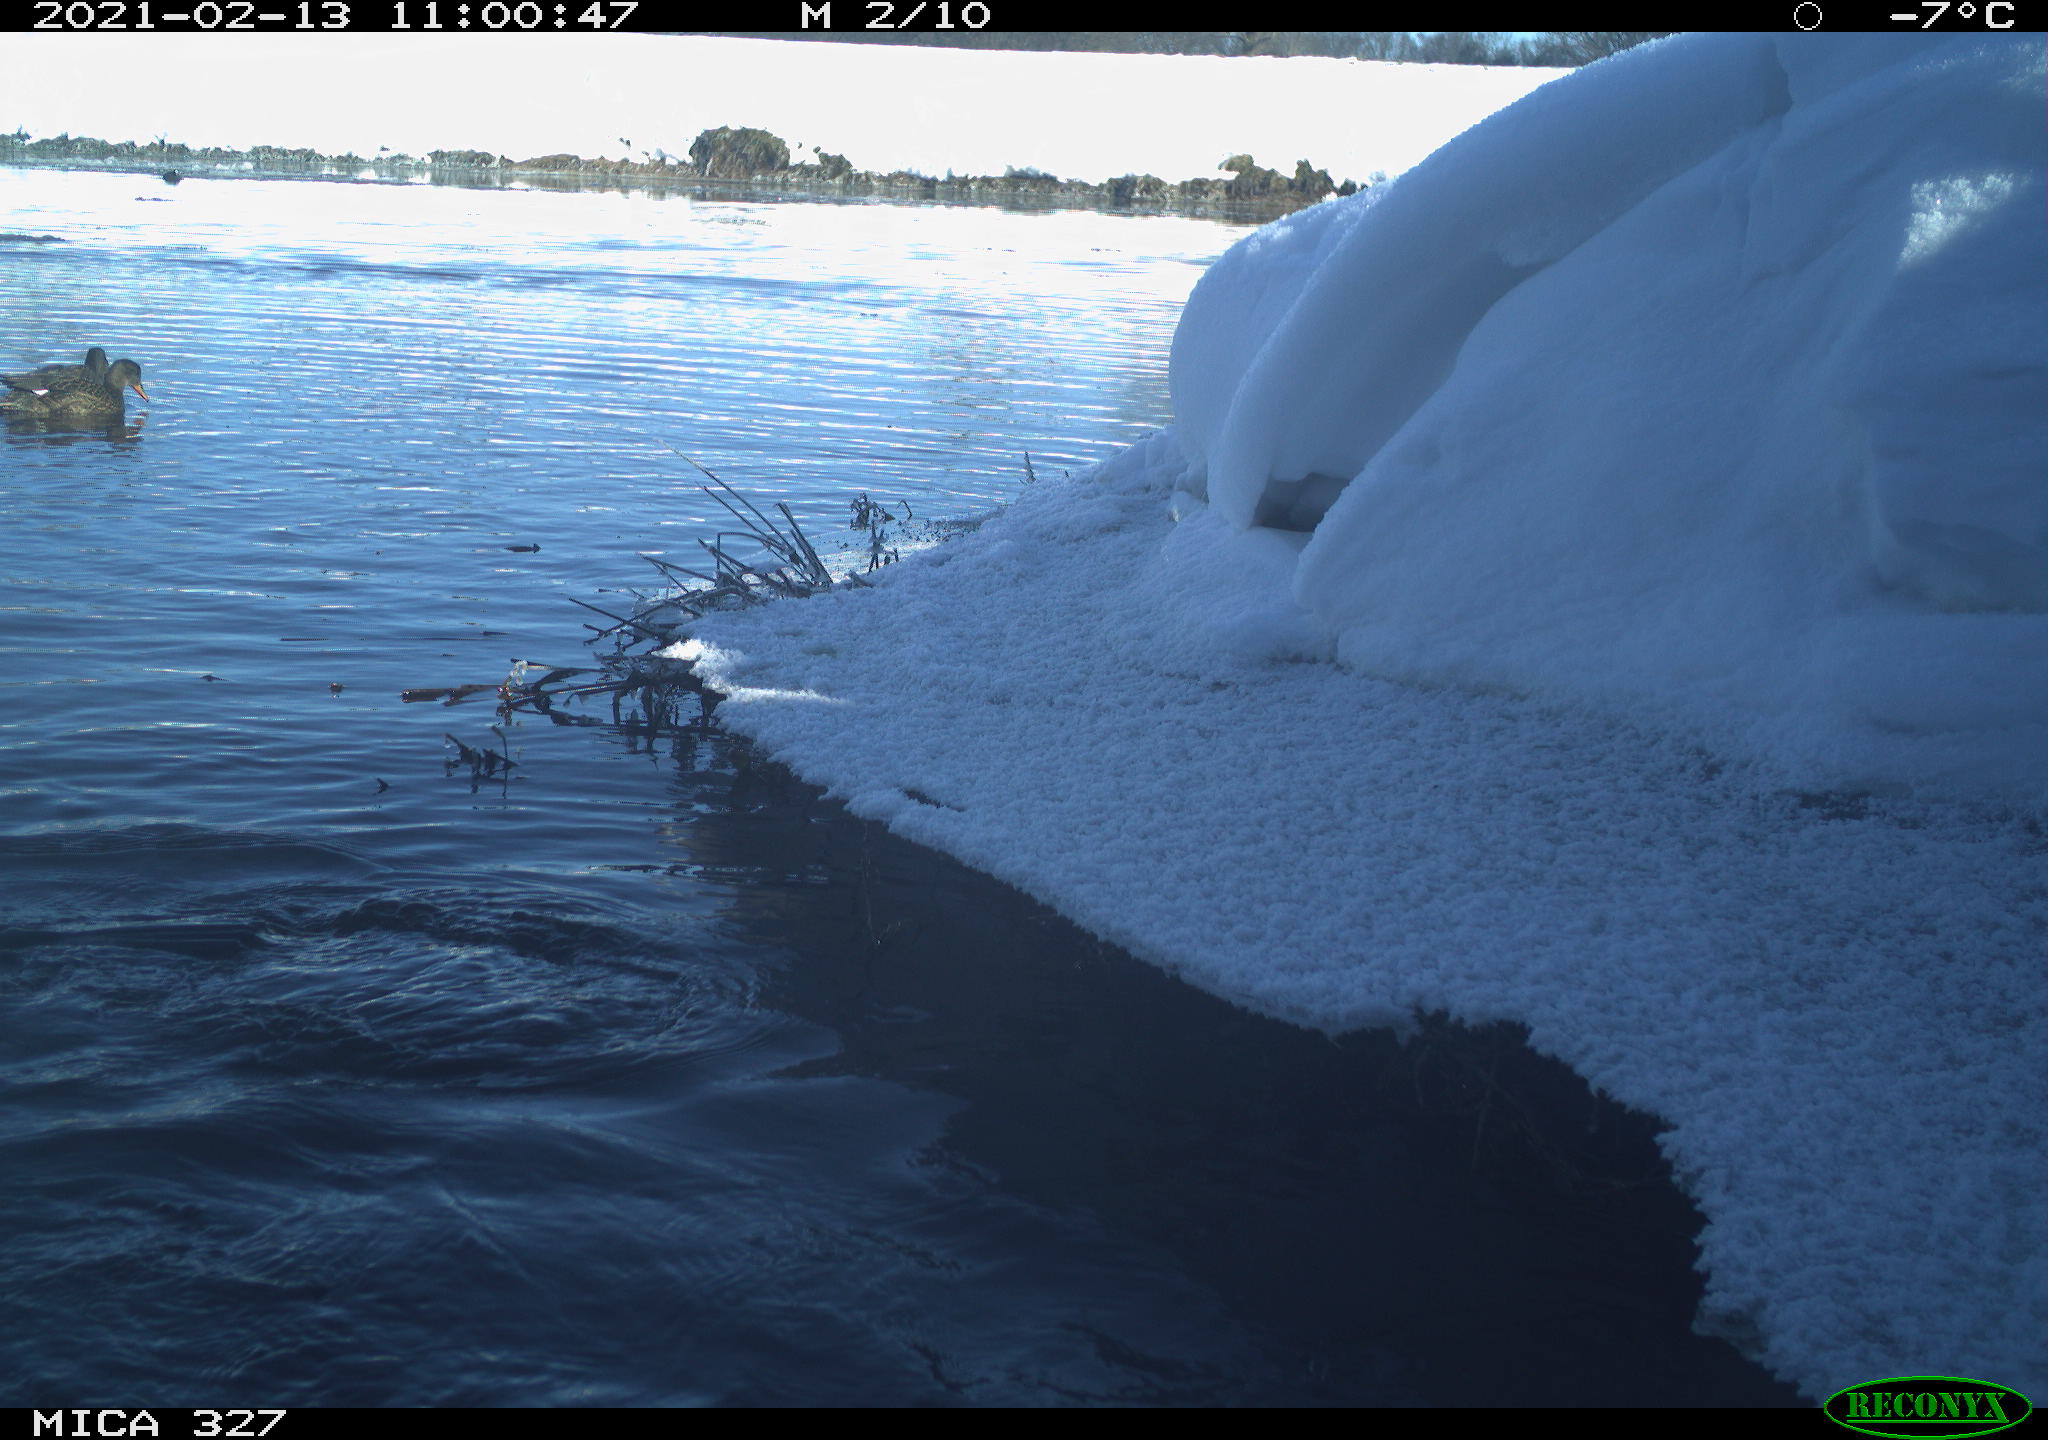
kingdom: Animalia
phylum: Chordata
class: Aves
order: Suliformes
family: Phalacrocoracidae
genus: Phalacrocorax
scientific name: Phalacrocorax carbo
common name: Great cormorant
